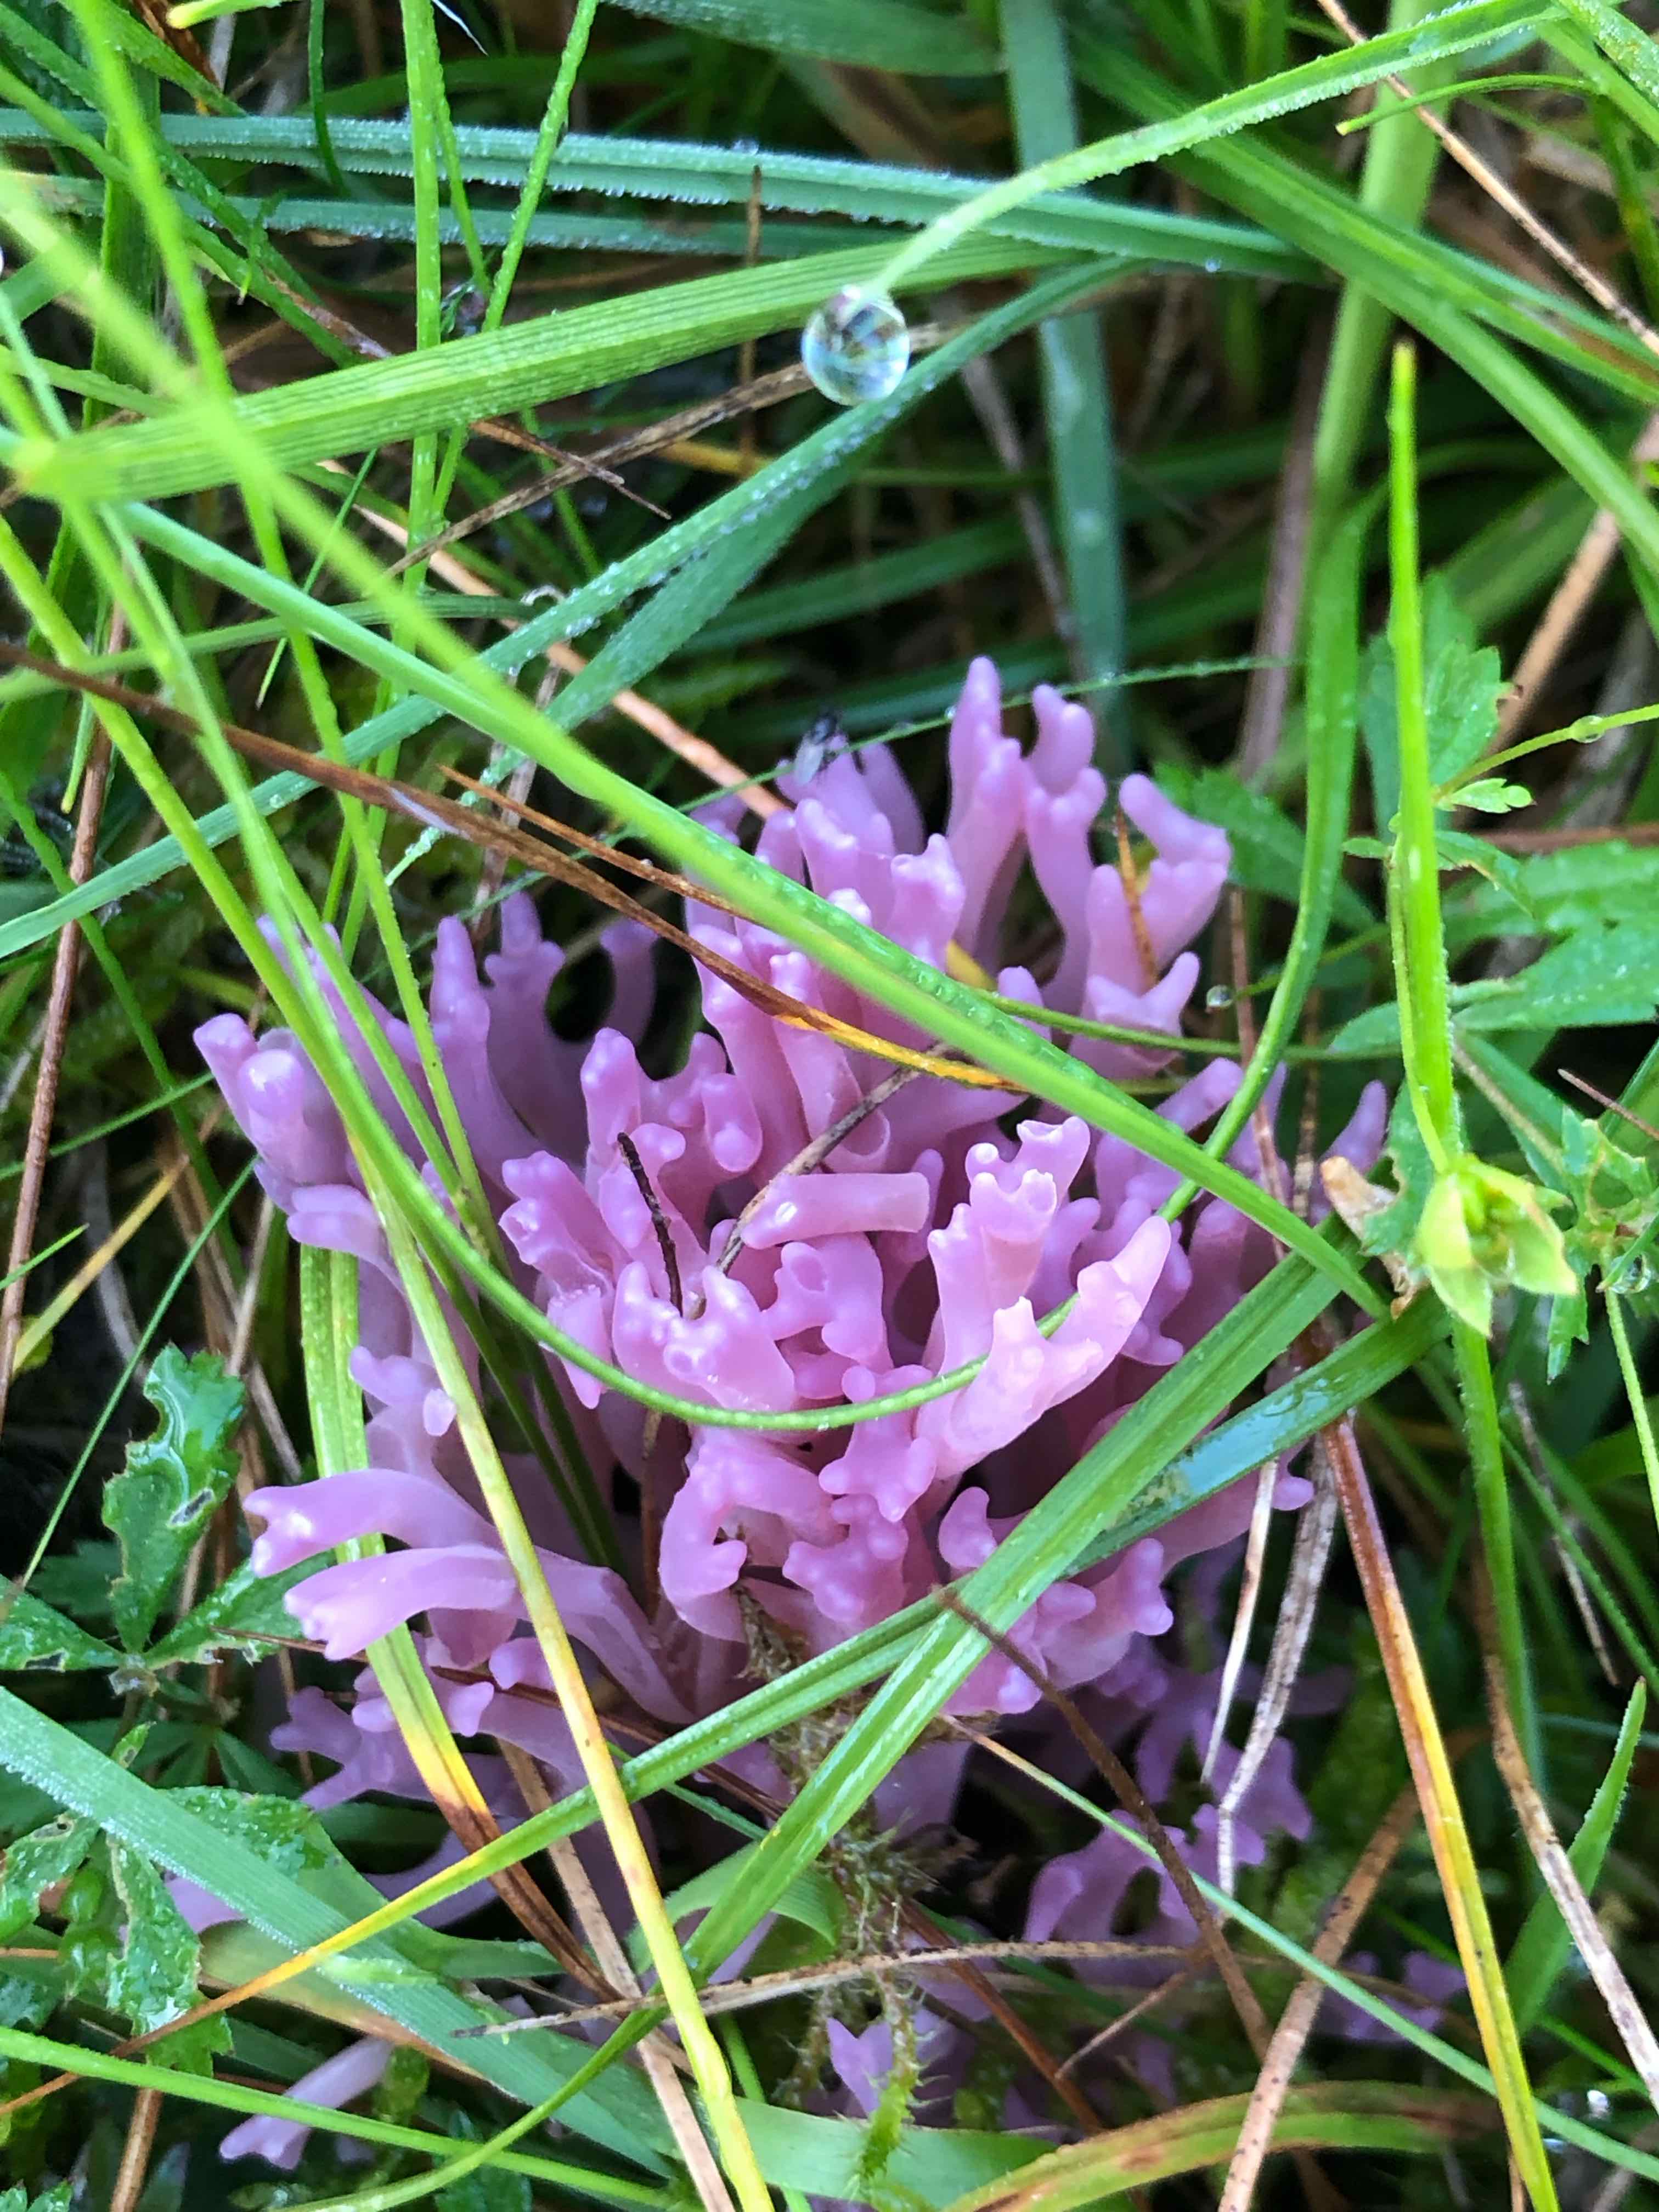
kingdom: Fungi
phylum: Basidiomycota
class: Agaricomycetes
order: Agaricales
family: Clavariaceae
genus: Clavaria
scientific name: Clavaria zollingeri
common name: purpur-køllesvamp
